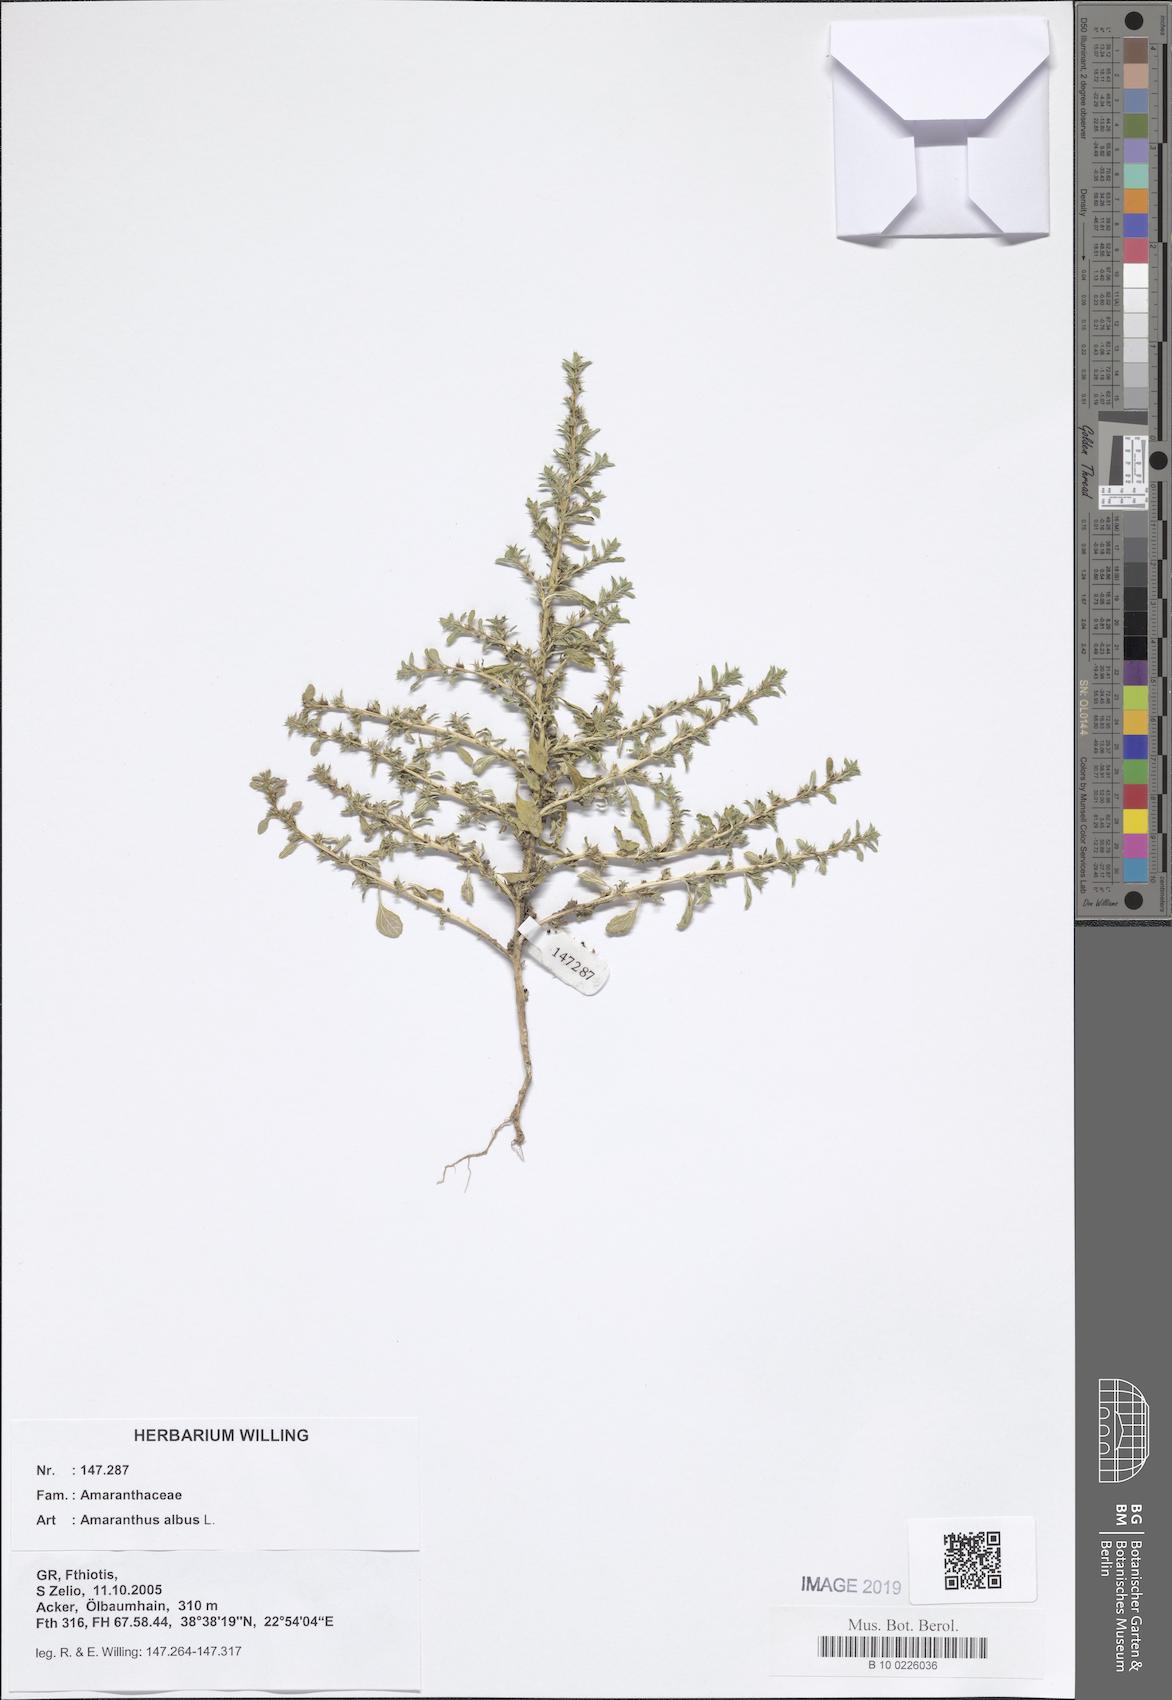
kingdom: Plantae
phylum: Tracheophyta
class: Magnoliopsida
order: Caryophyllales
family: Amaranthaceae
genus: Amaranthus
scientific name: Amaranthus albus
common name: White pigweed
